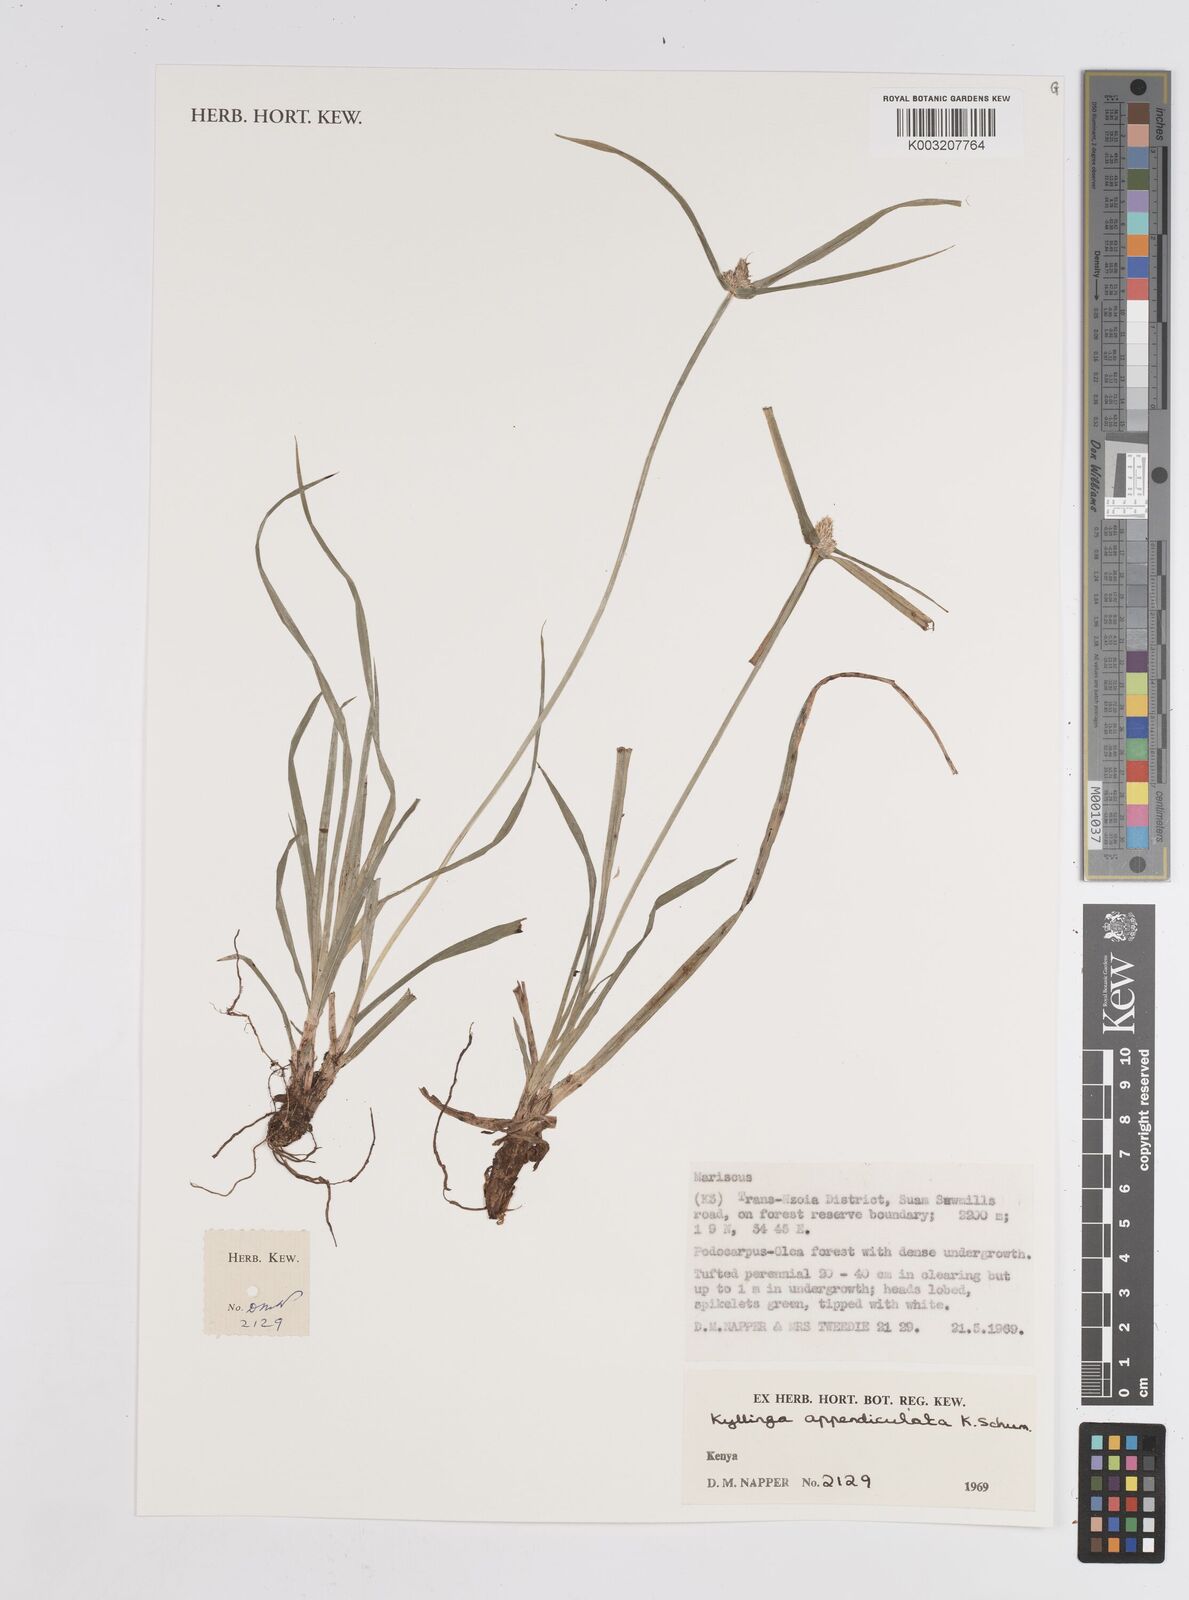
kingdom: Plantae
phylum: Tracheophyta
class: Liliopsida
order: Poales
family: Cyperaceae
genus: Cyperus
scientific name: Cyperus
